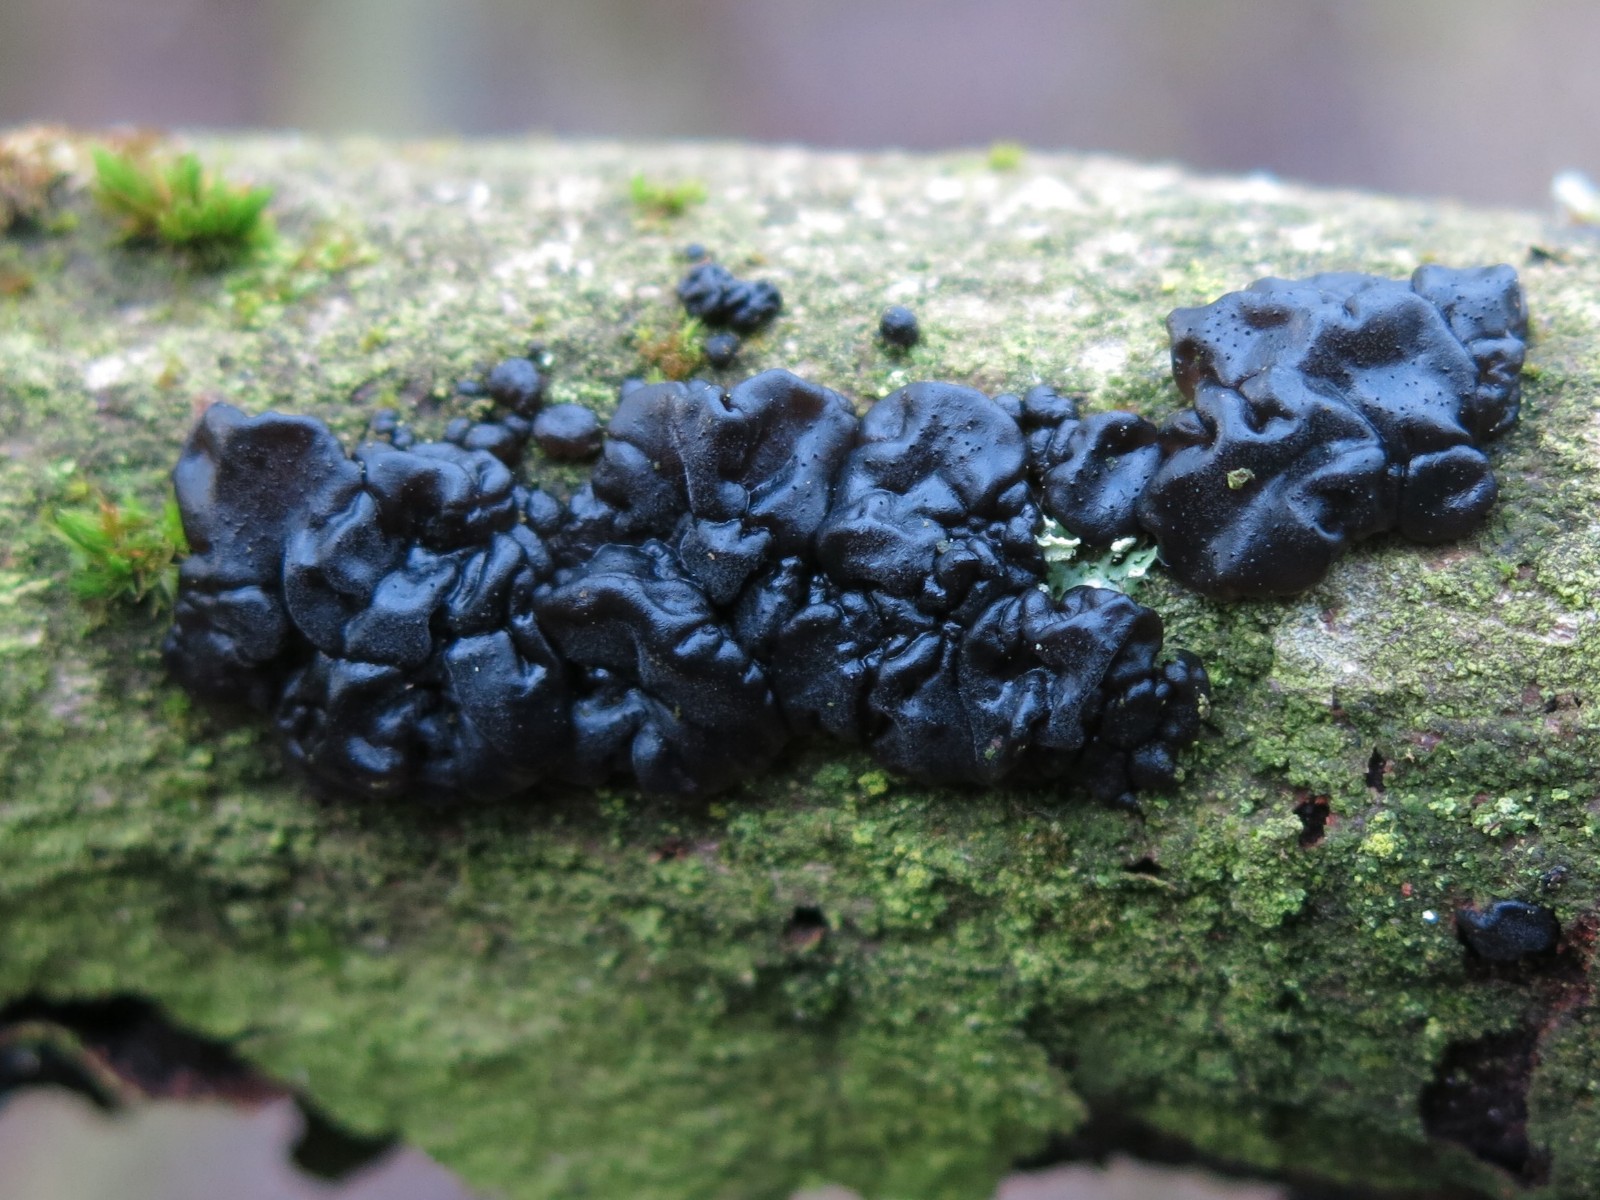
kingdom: Fungi
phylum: Basidiomycota
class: Agaricomycetes
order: Auriculariales
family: Auriculariaceae
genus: Exidia
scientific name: Exidia nigricans
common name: almindelig bævretop
